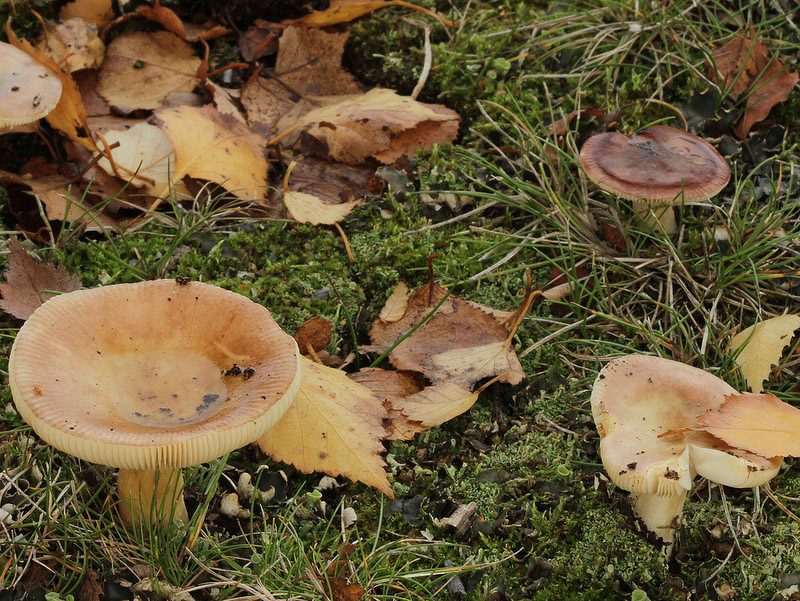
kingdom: Fungi
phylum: Basidiomycota
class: Agaricomycetes
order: Russulales
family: Russulaceae
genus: Russula
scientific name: Russula versicolor
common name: foranderlig skørhat
